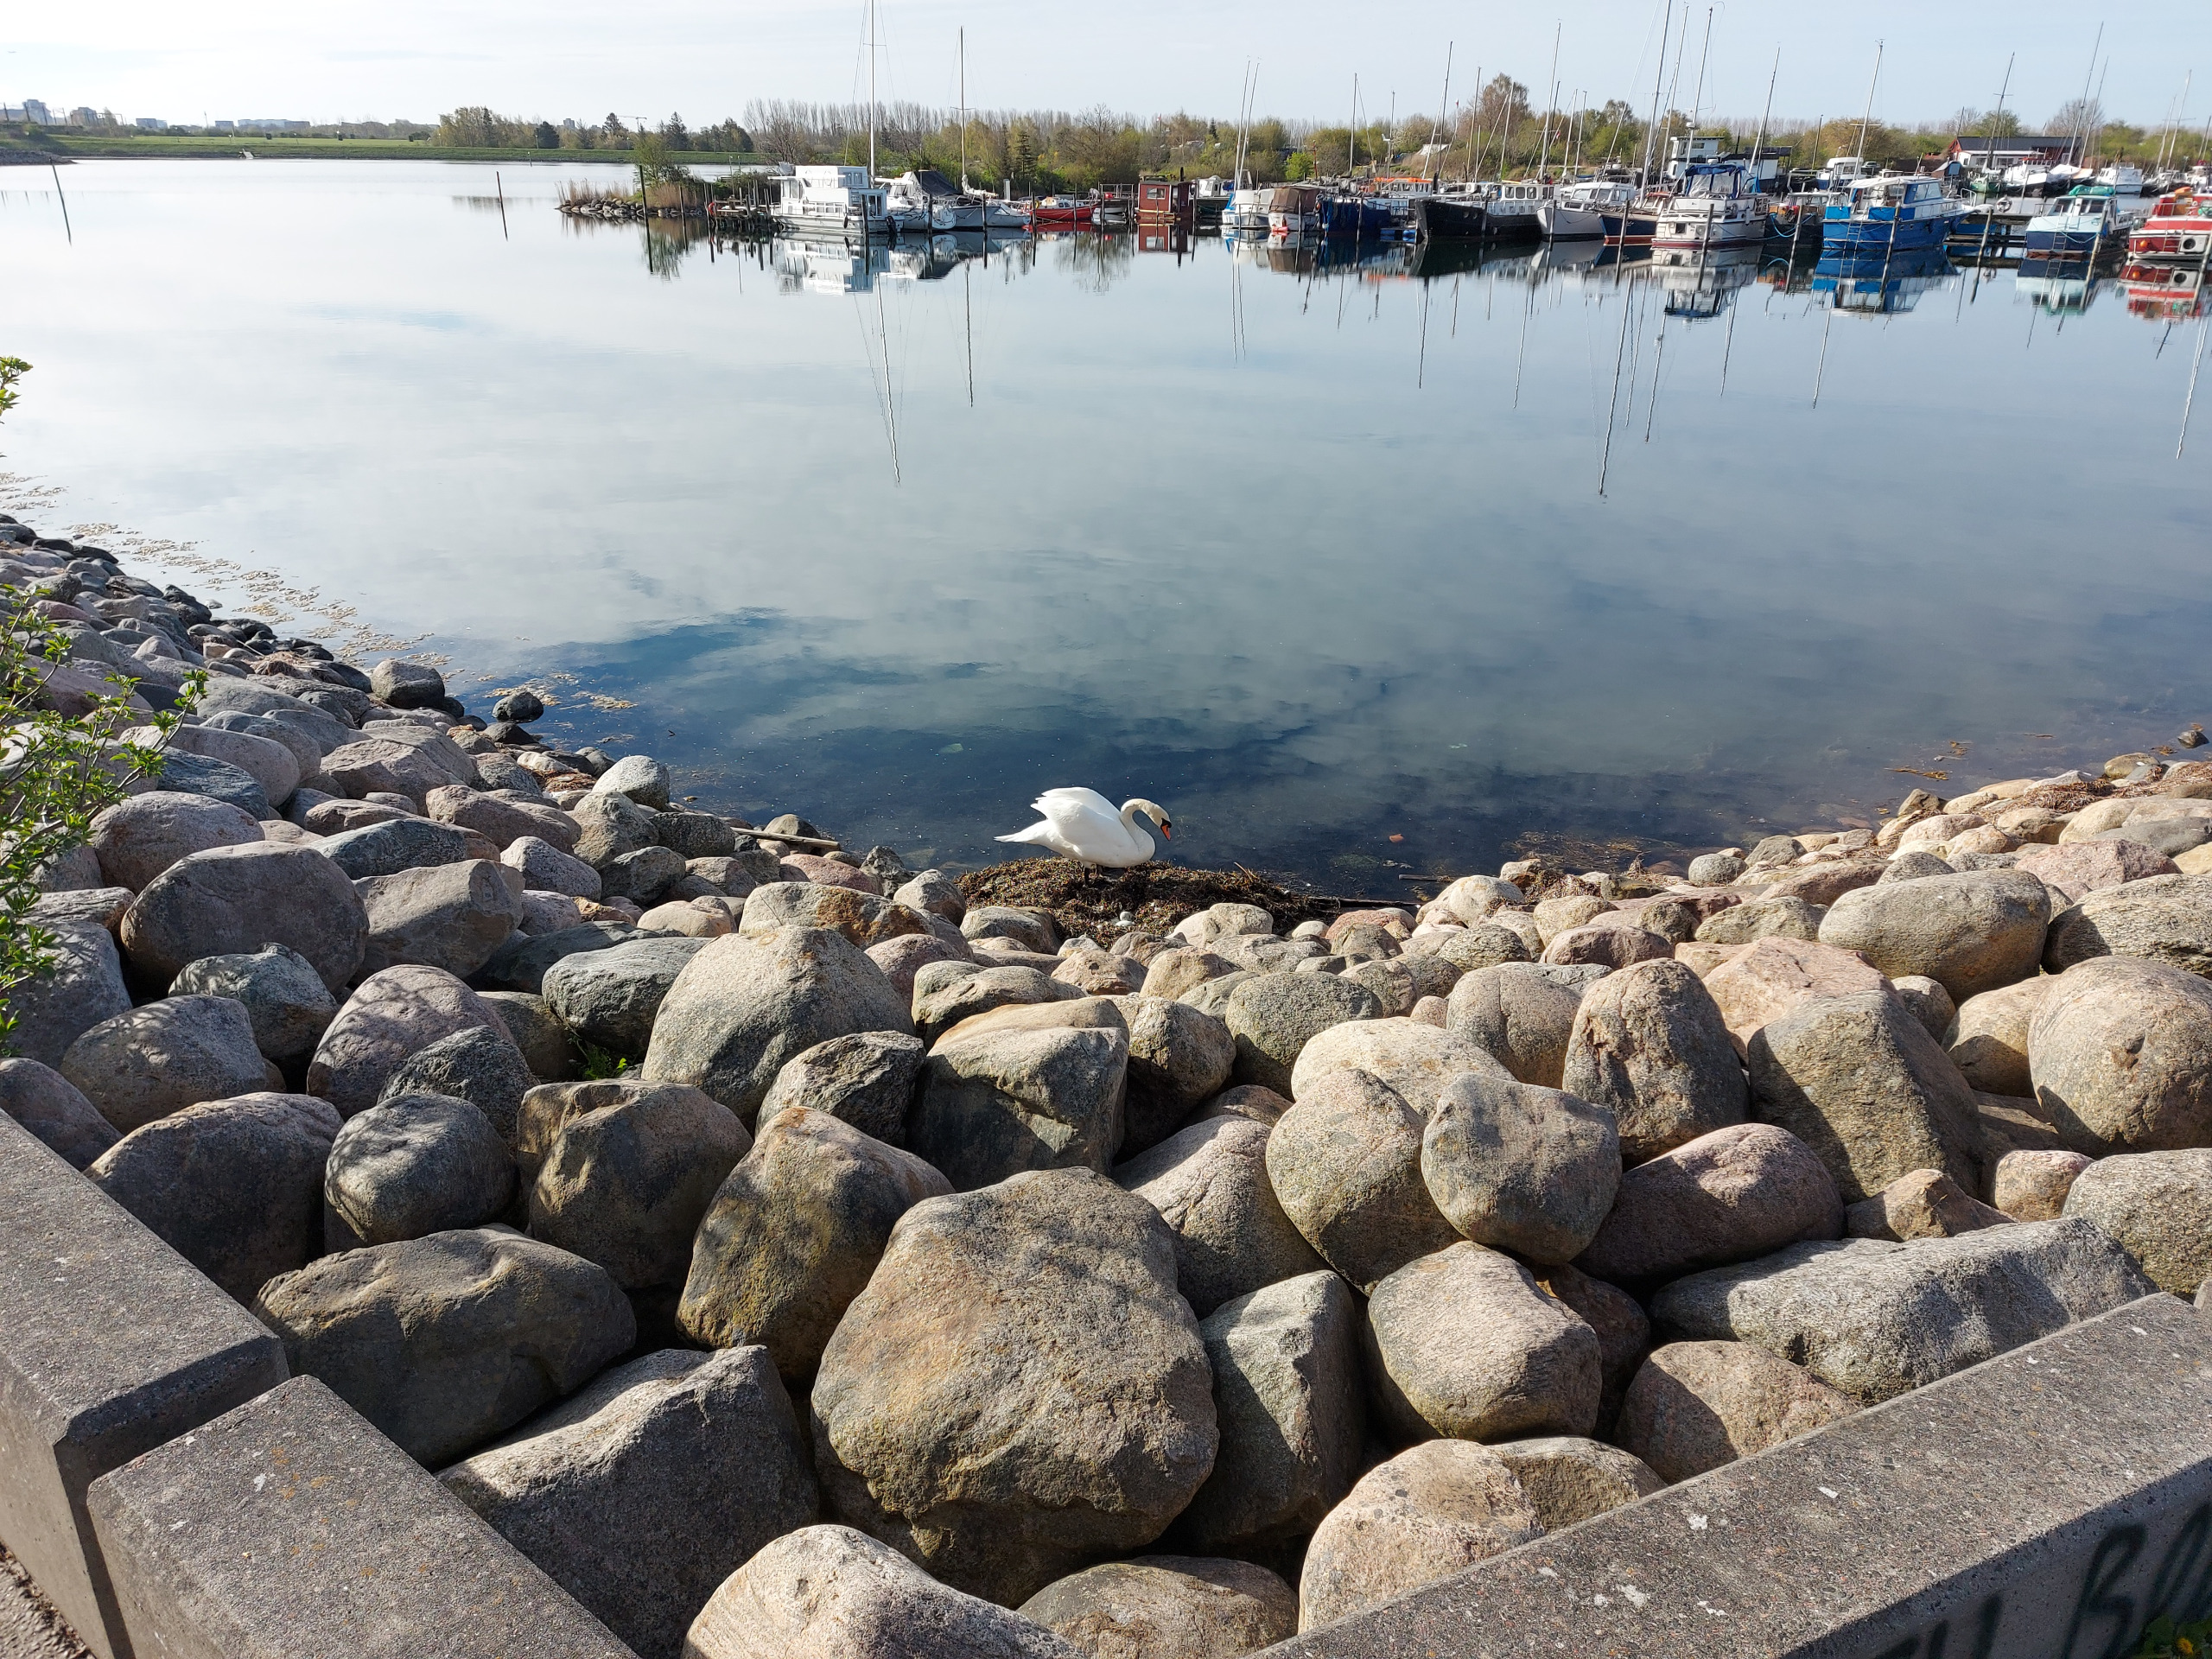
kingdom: Animalia
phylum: Chordata
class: Aves
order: Anseriformes
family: Anatidae
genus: Cygnus
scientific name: Cygnus olor
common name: Knopsvane
